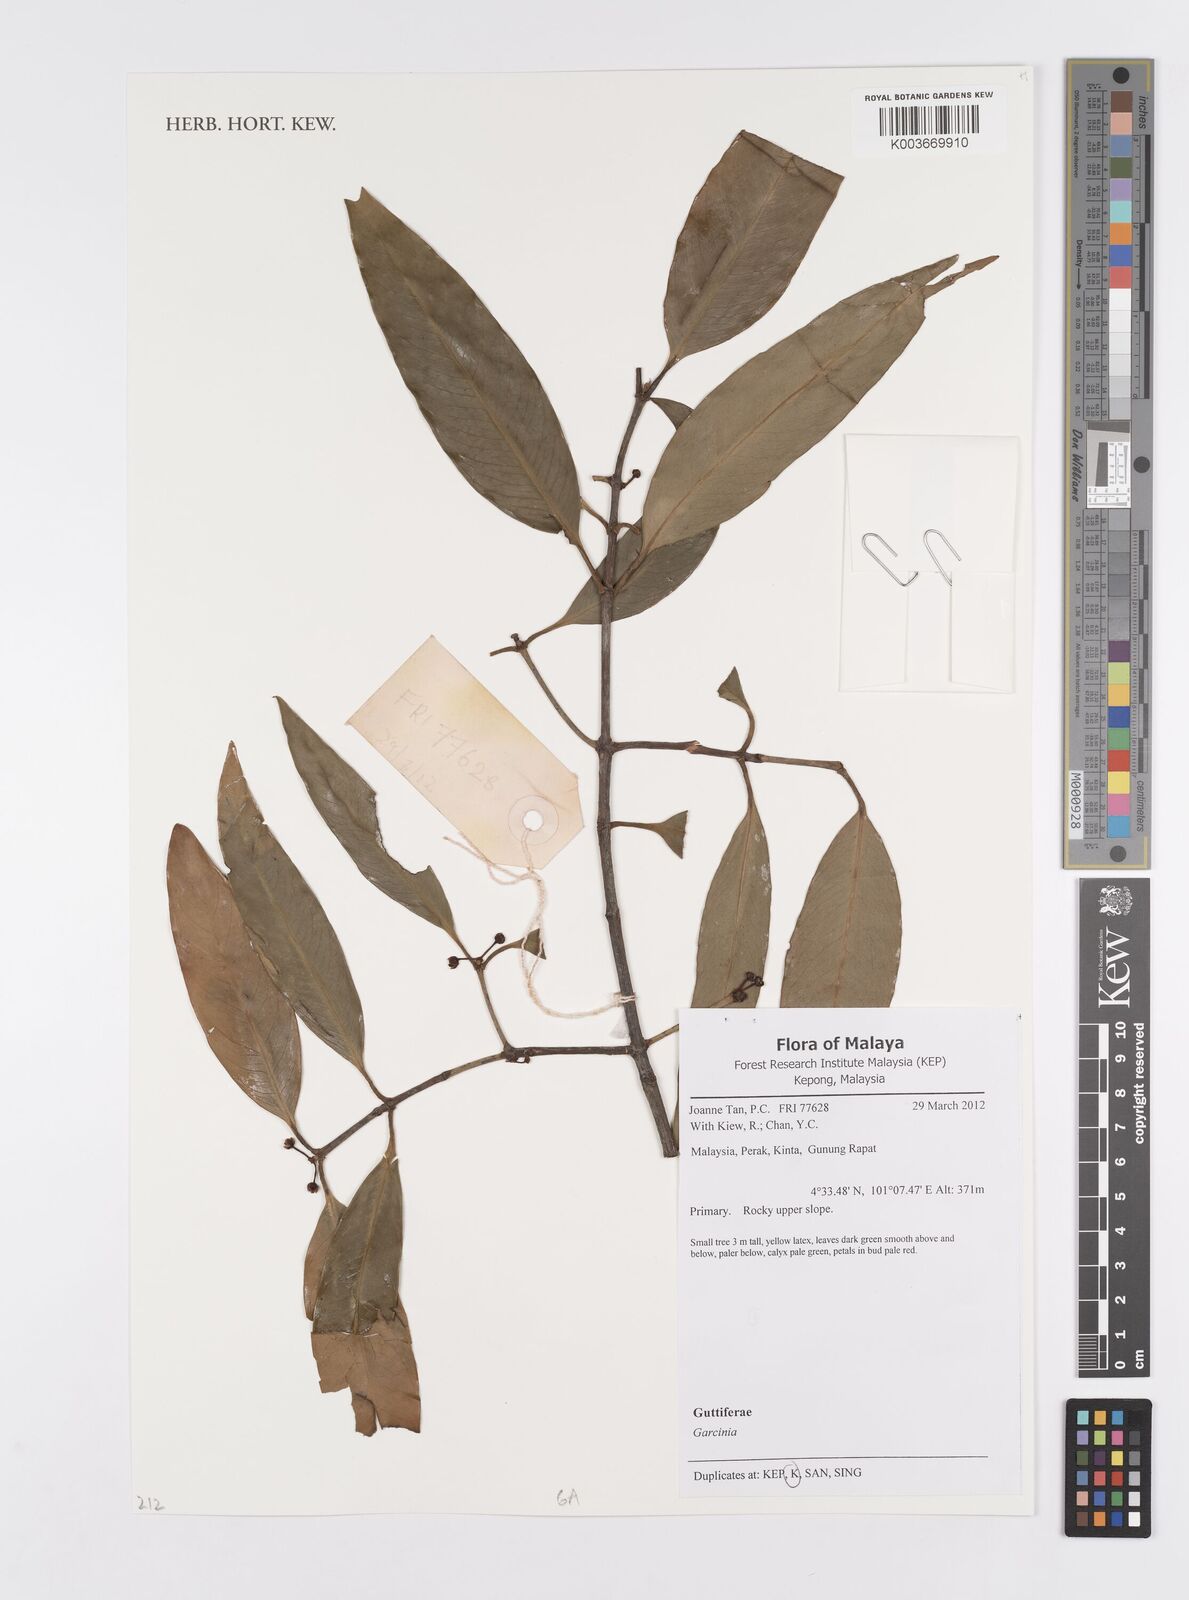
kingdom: Plantae
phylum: Tracheophyta
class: Magnoliopsida
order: Malpighiales
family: Clusiaceae
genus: Garcinia
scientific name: Garcinia
